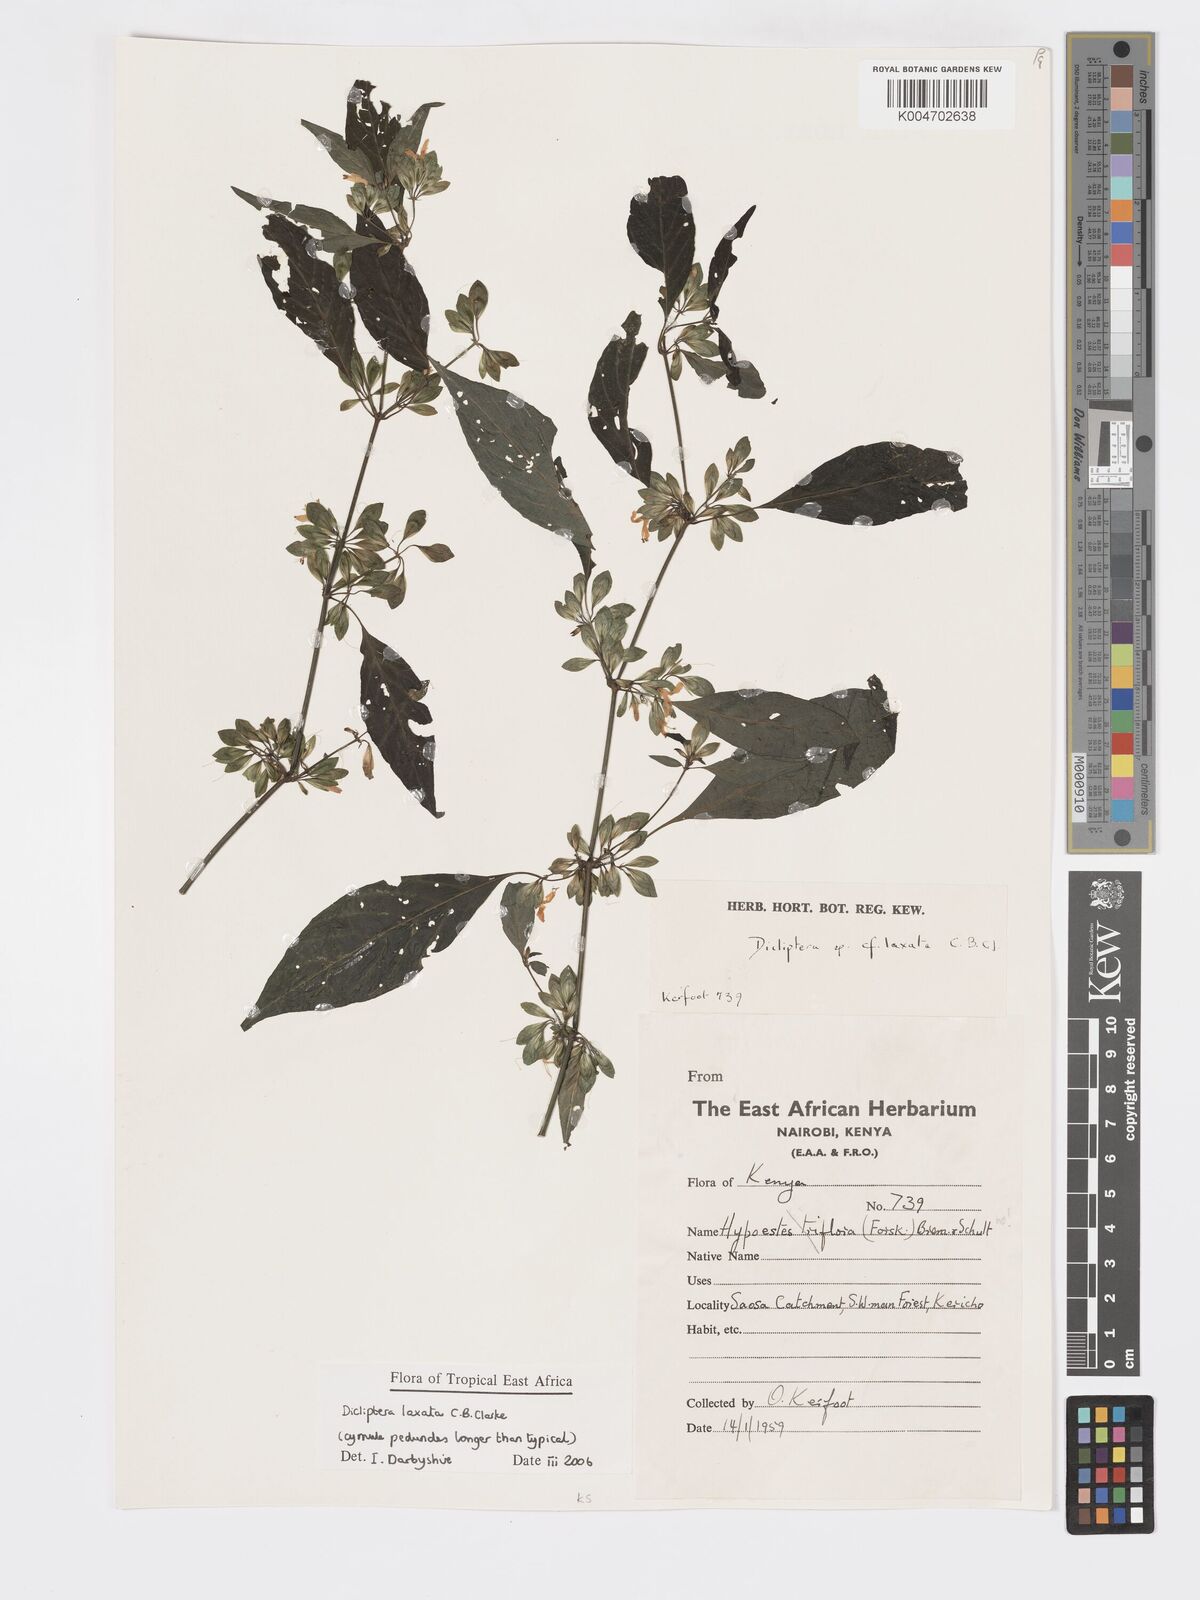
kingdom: Plantae
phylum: Tracheophyta
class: Magnoliopsida
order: Lamiales
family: Acanthaceae
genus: Dicliptera
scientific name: Dicliptera laxata
